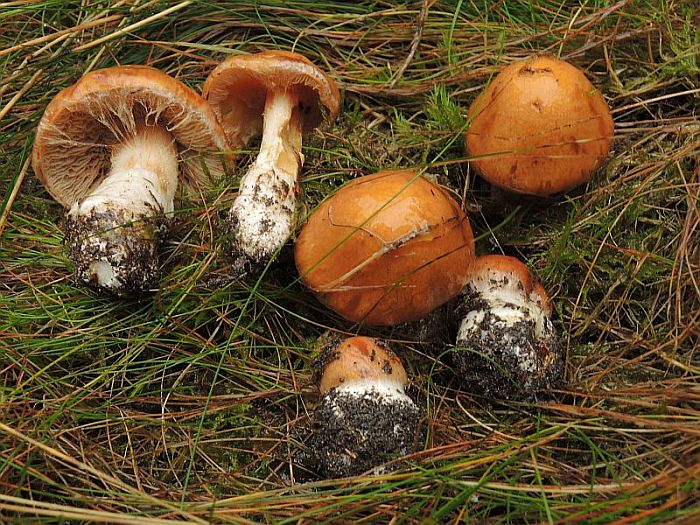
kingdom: Fungi
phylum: Basidiomycota
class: Agaricomycetes
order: Agaricales
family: Cortinariaceae
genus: Thaxterogaster
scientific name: Thaxterogaster multiformis
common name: honning-slørhat
